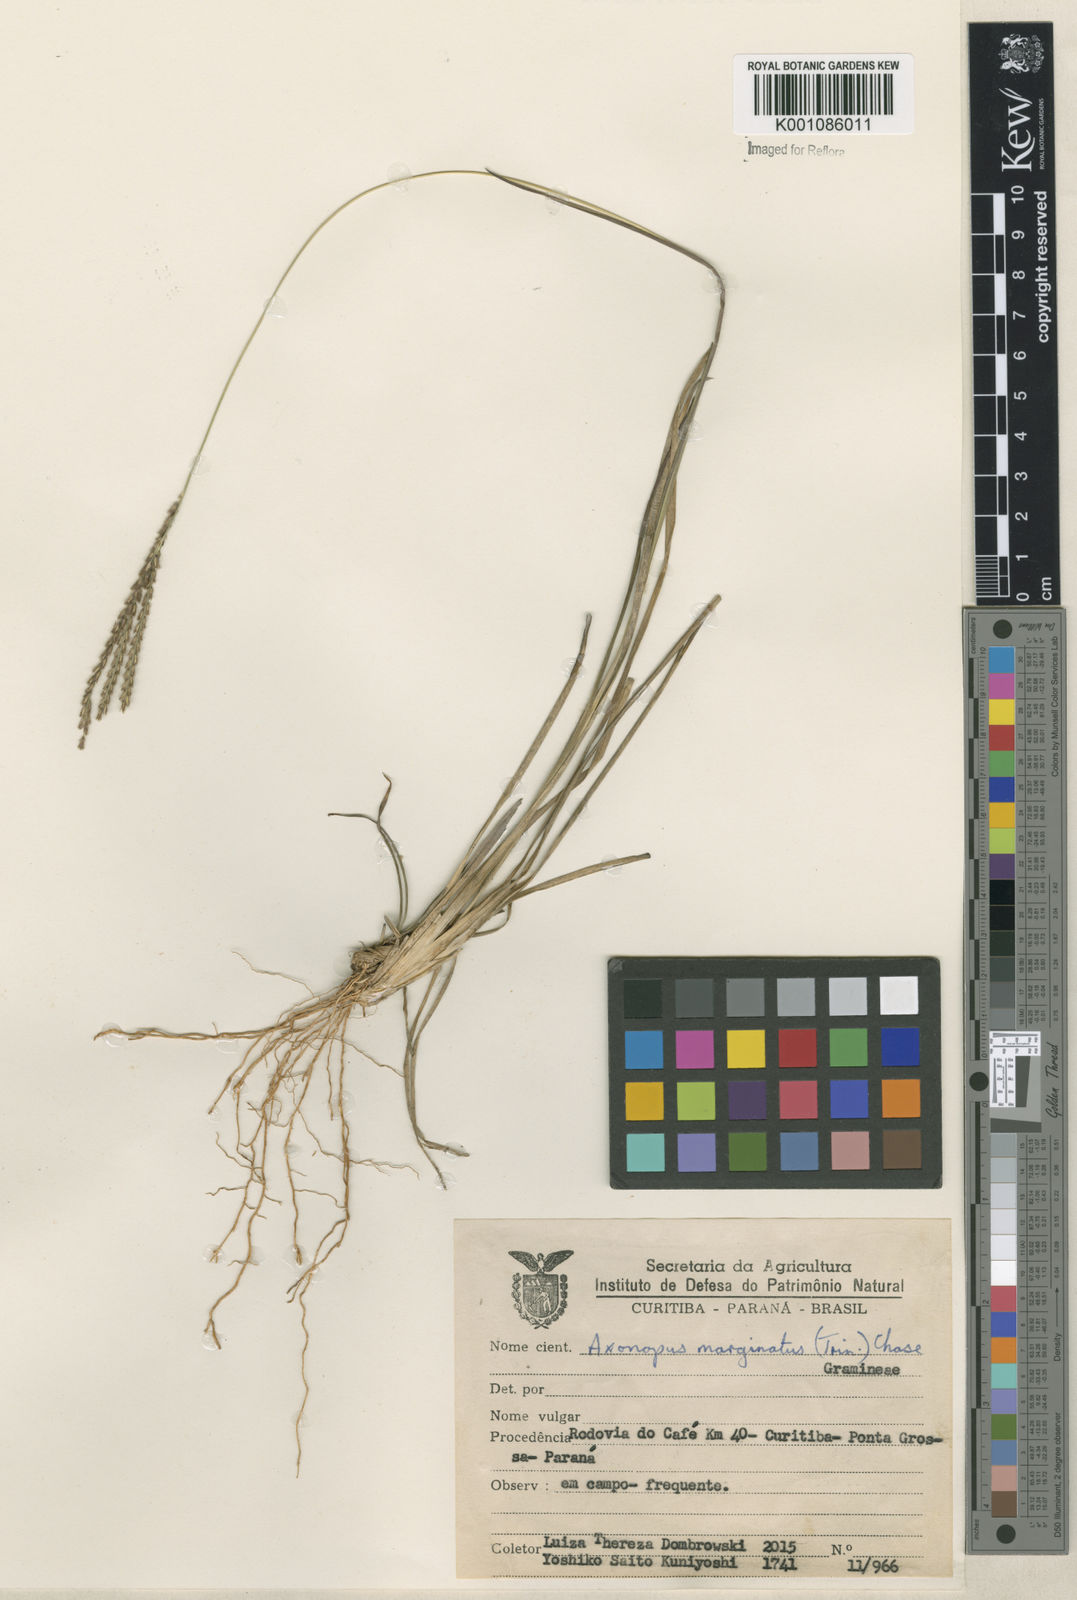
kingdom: Plantae
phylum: Tracheophyta
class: Liliopsida
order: Poales
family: Poaceae
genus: Axonopus
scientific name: Axonopus
